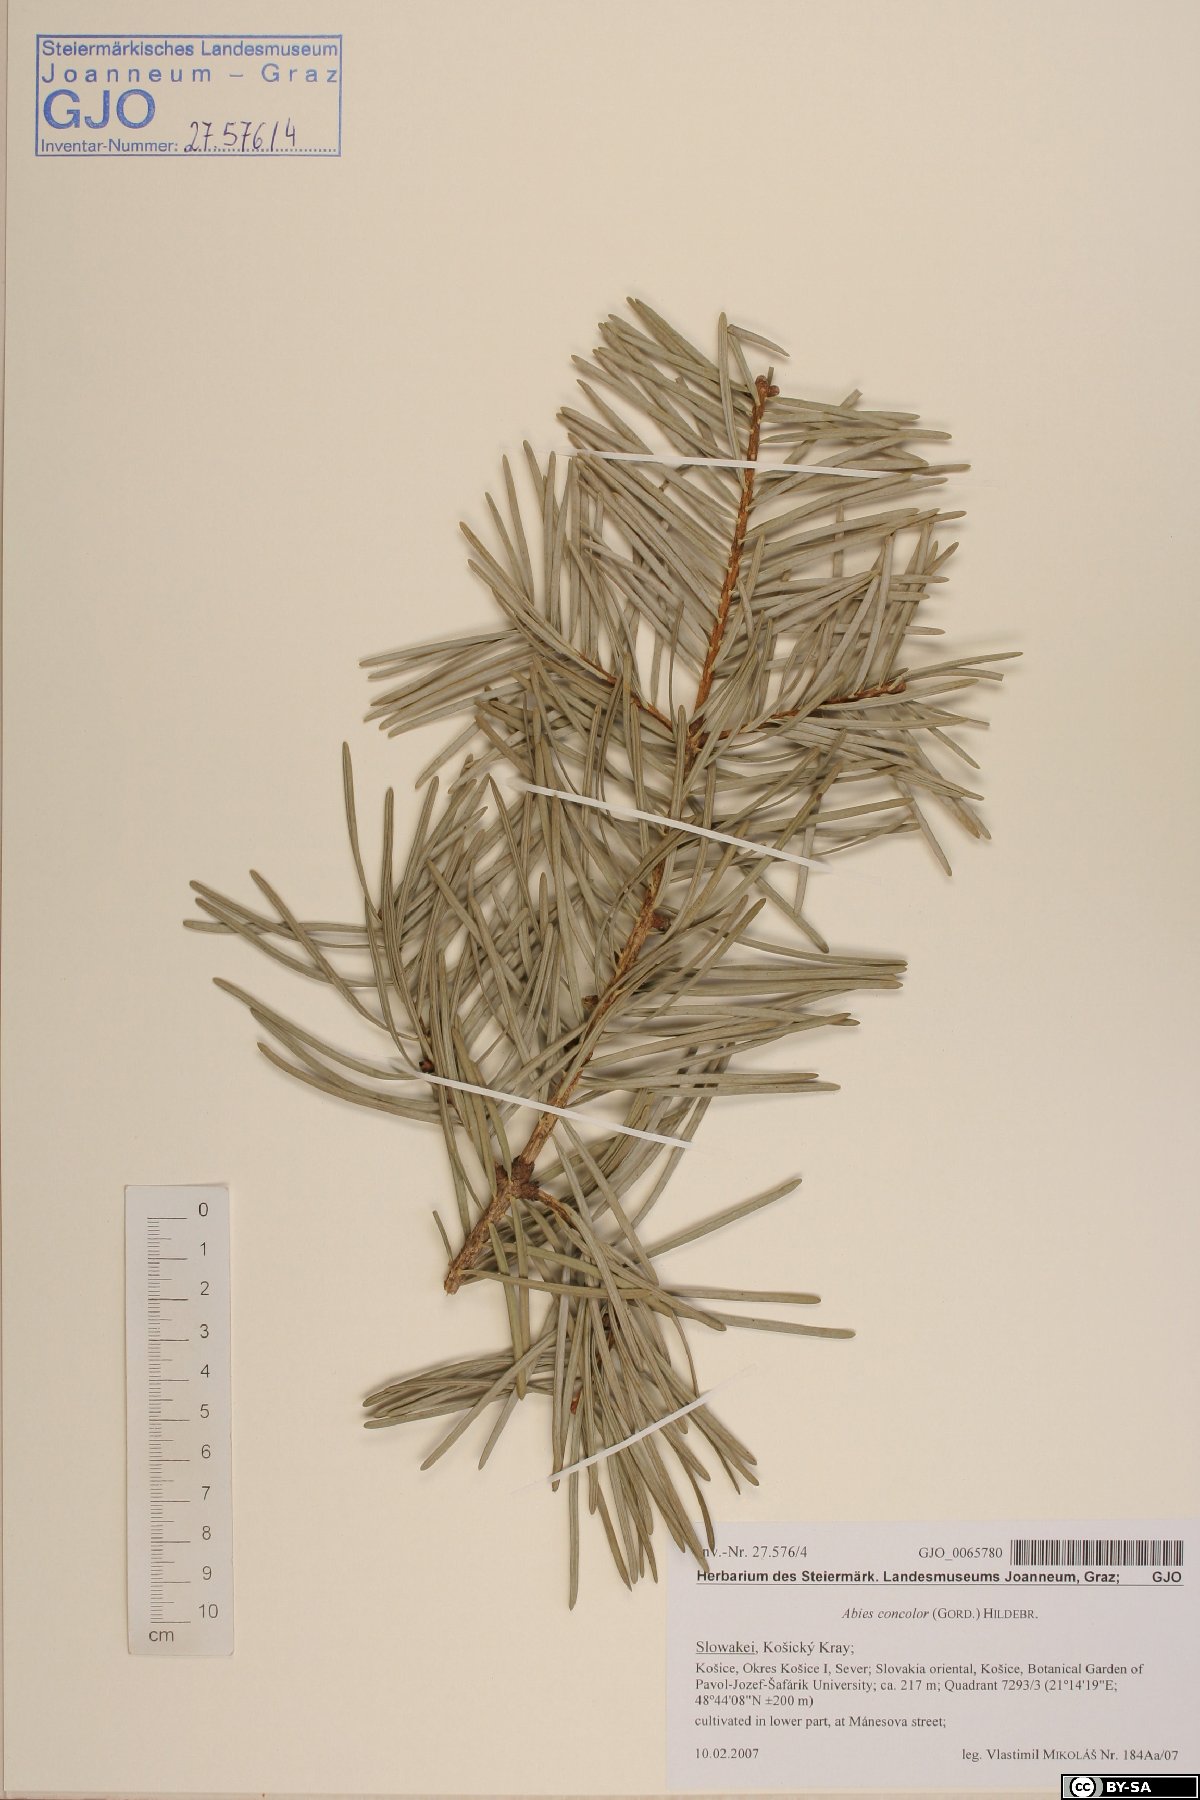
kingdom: Plantae
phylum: Tracheophyta
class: Pinopsida
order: Pinales
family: Pinaceae
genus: Abies
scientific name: Abies concolor
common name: Colorado fir
